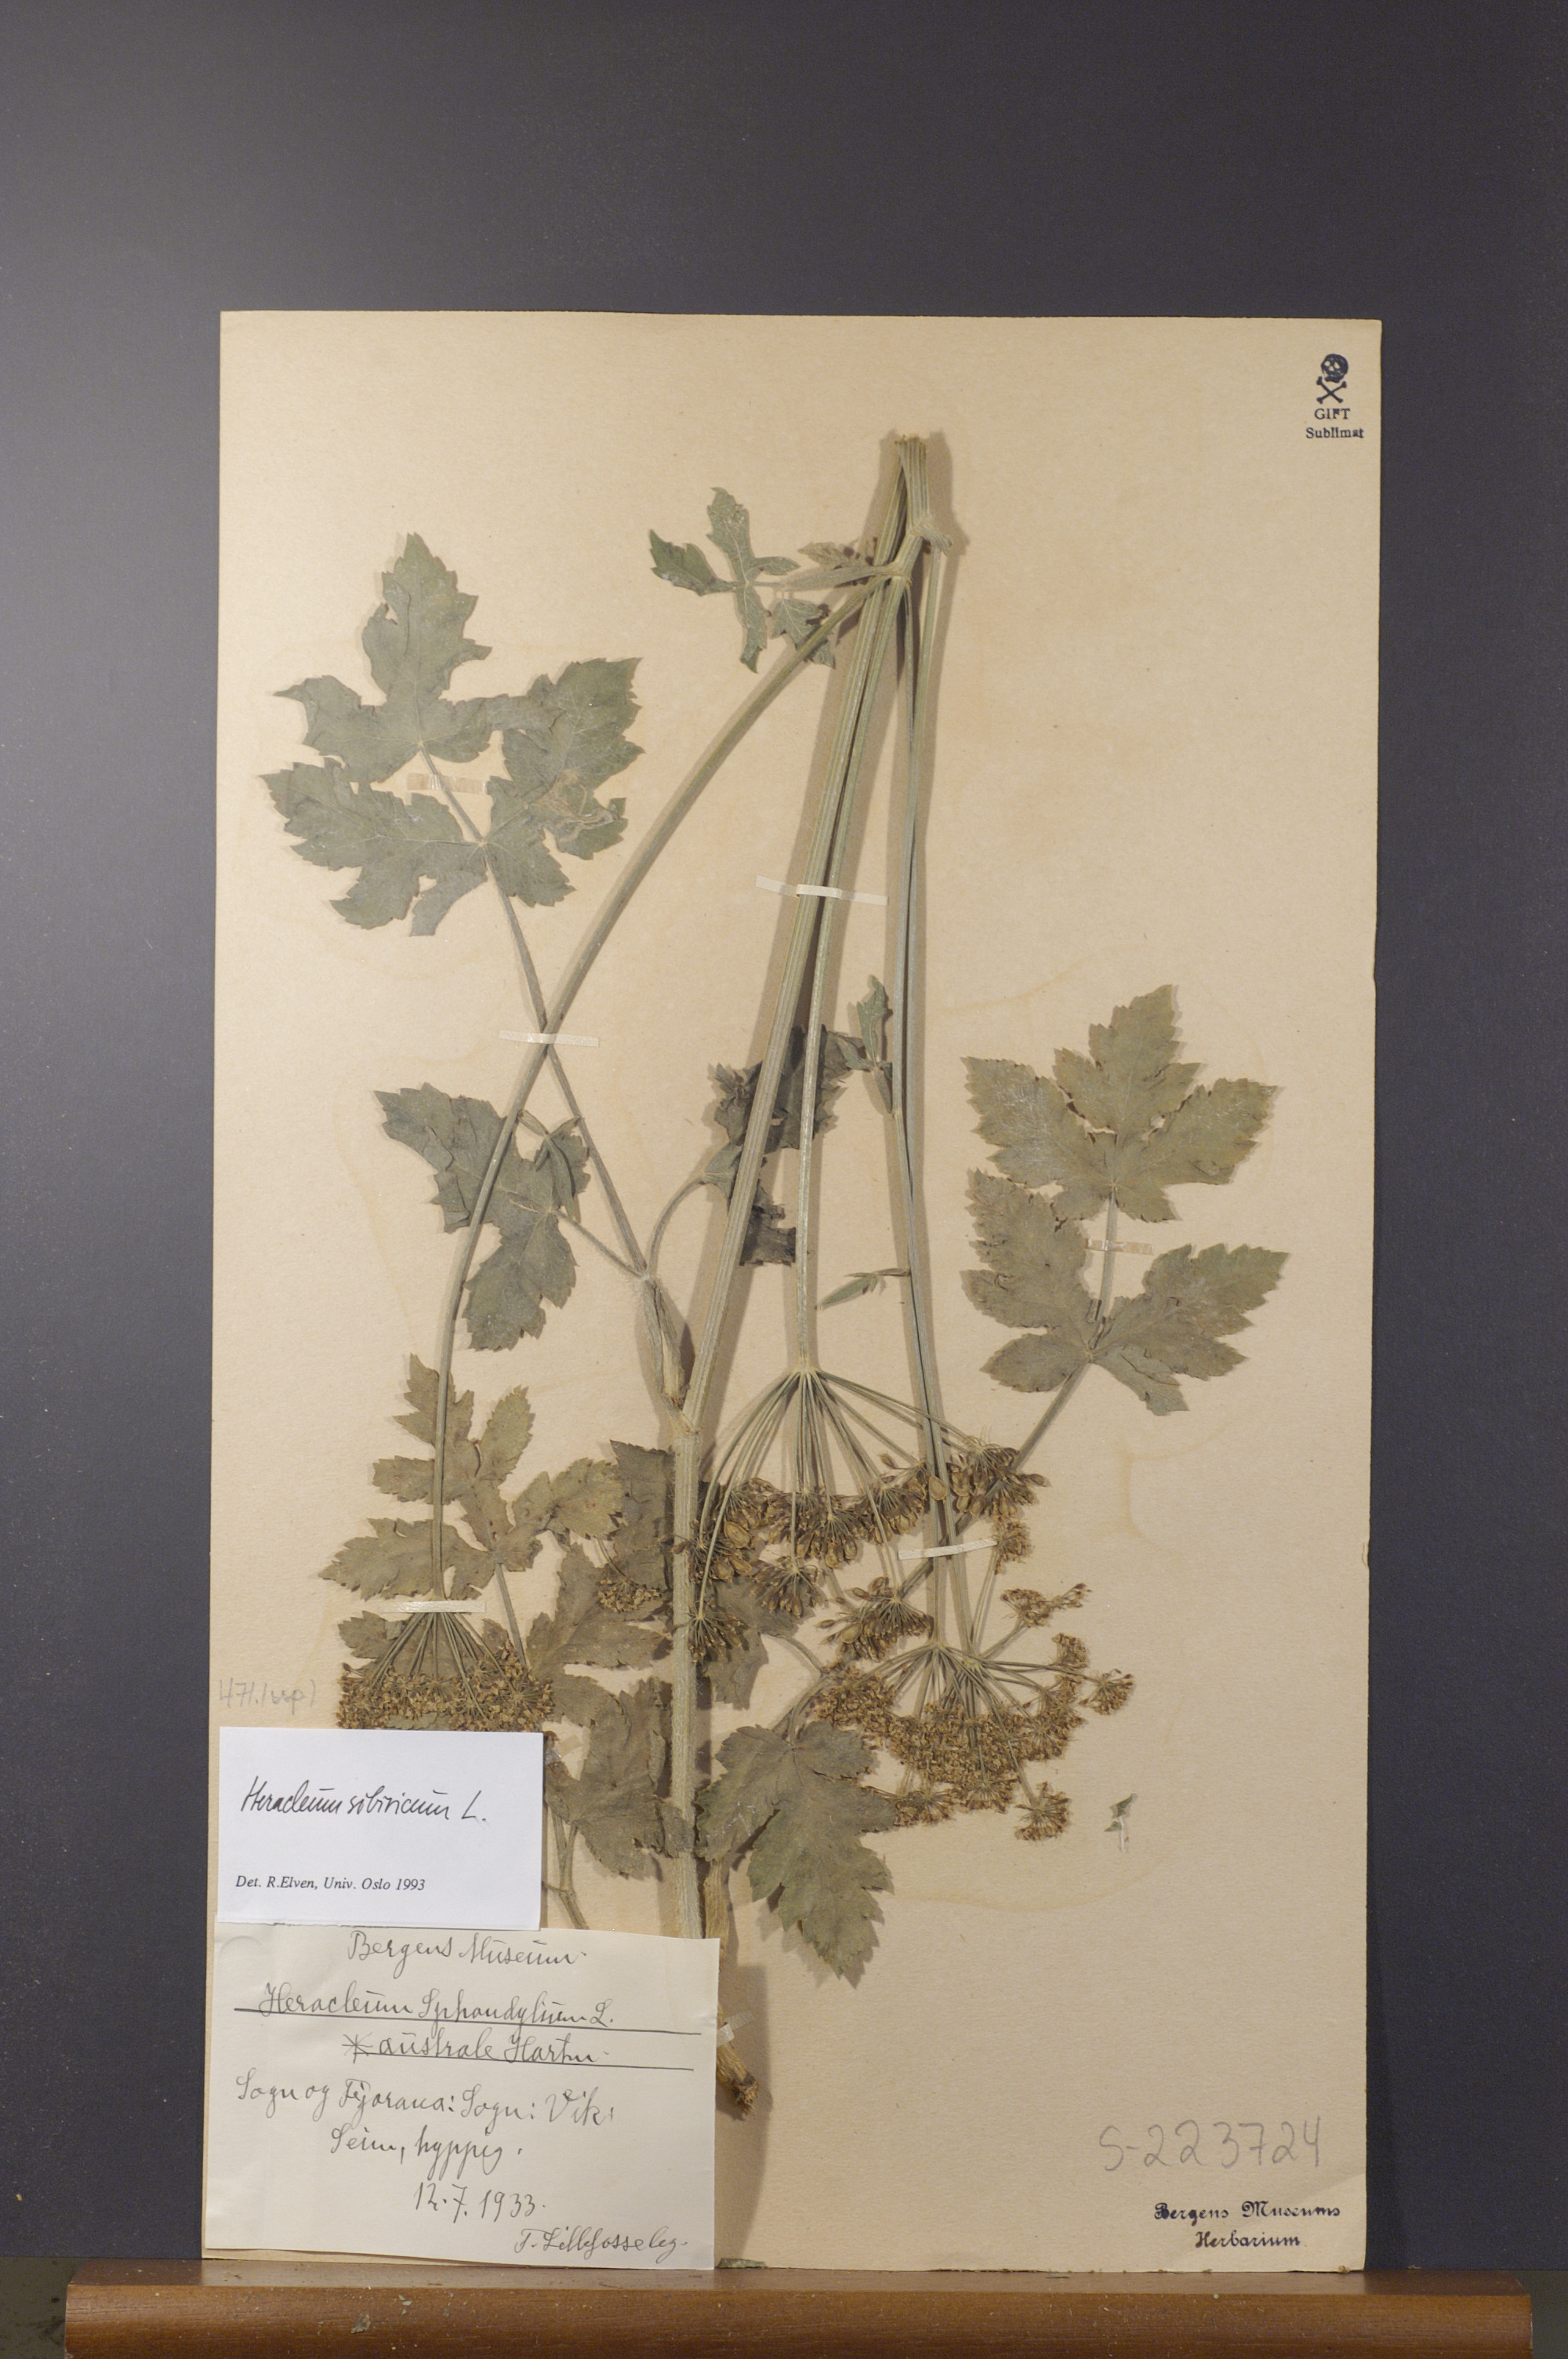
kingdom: Plantae
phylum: Tracheophyta
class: Magnoliopsida
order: Apiales
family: Apiaceae
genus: Heracleum
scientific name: Heracleum sphondylium
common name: Hogweed
